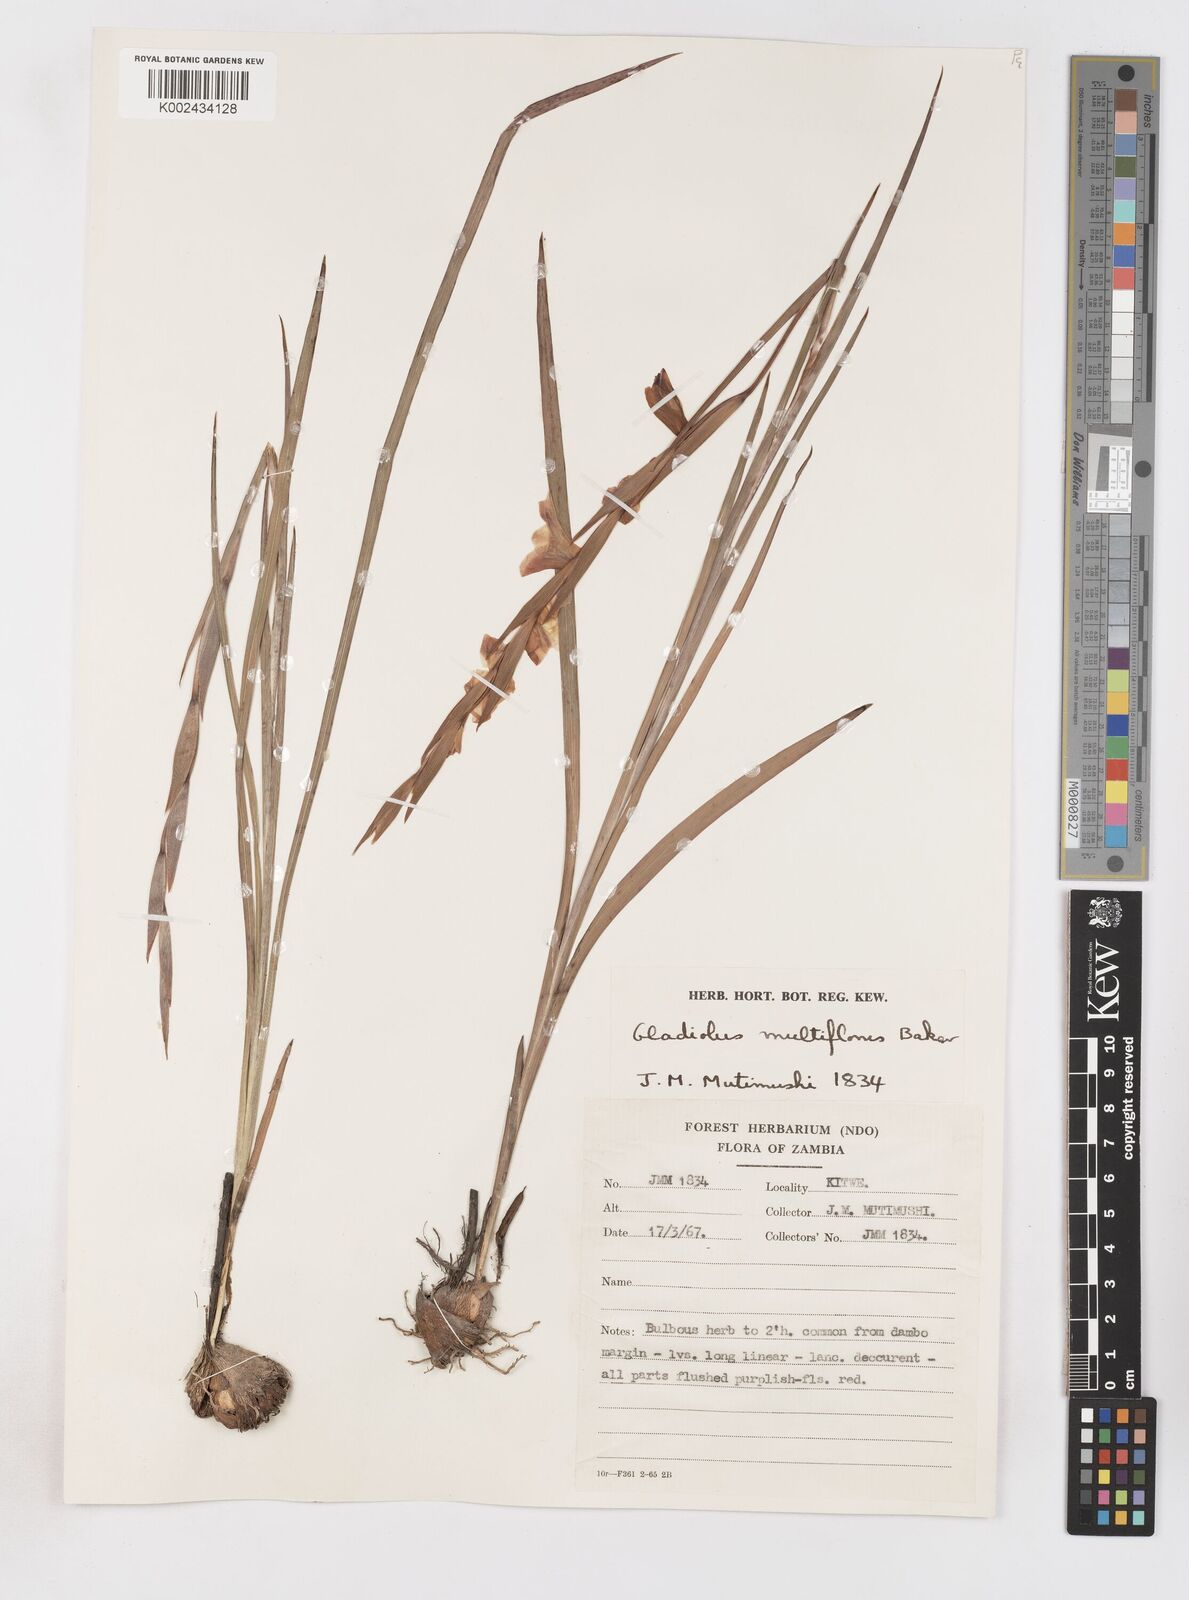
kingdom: Plantae
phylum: Tracheophyta
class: Liliopsida
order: Asparagales
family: Iridaceae
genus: Gladiolus
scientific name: Gladiolus gregarius
